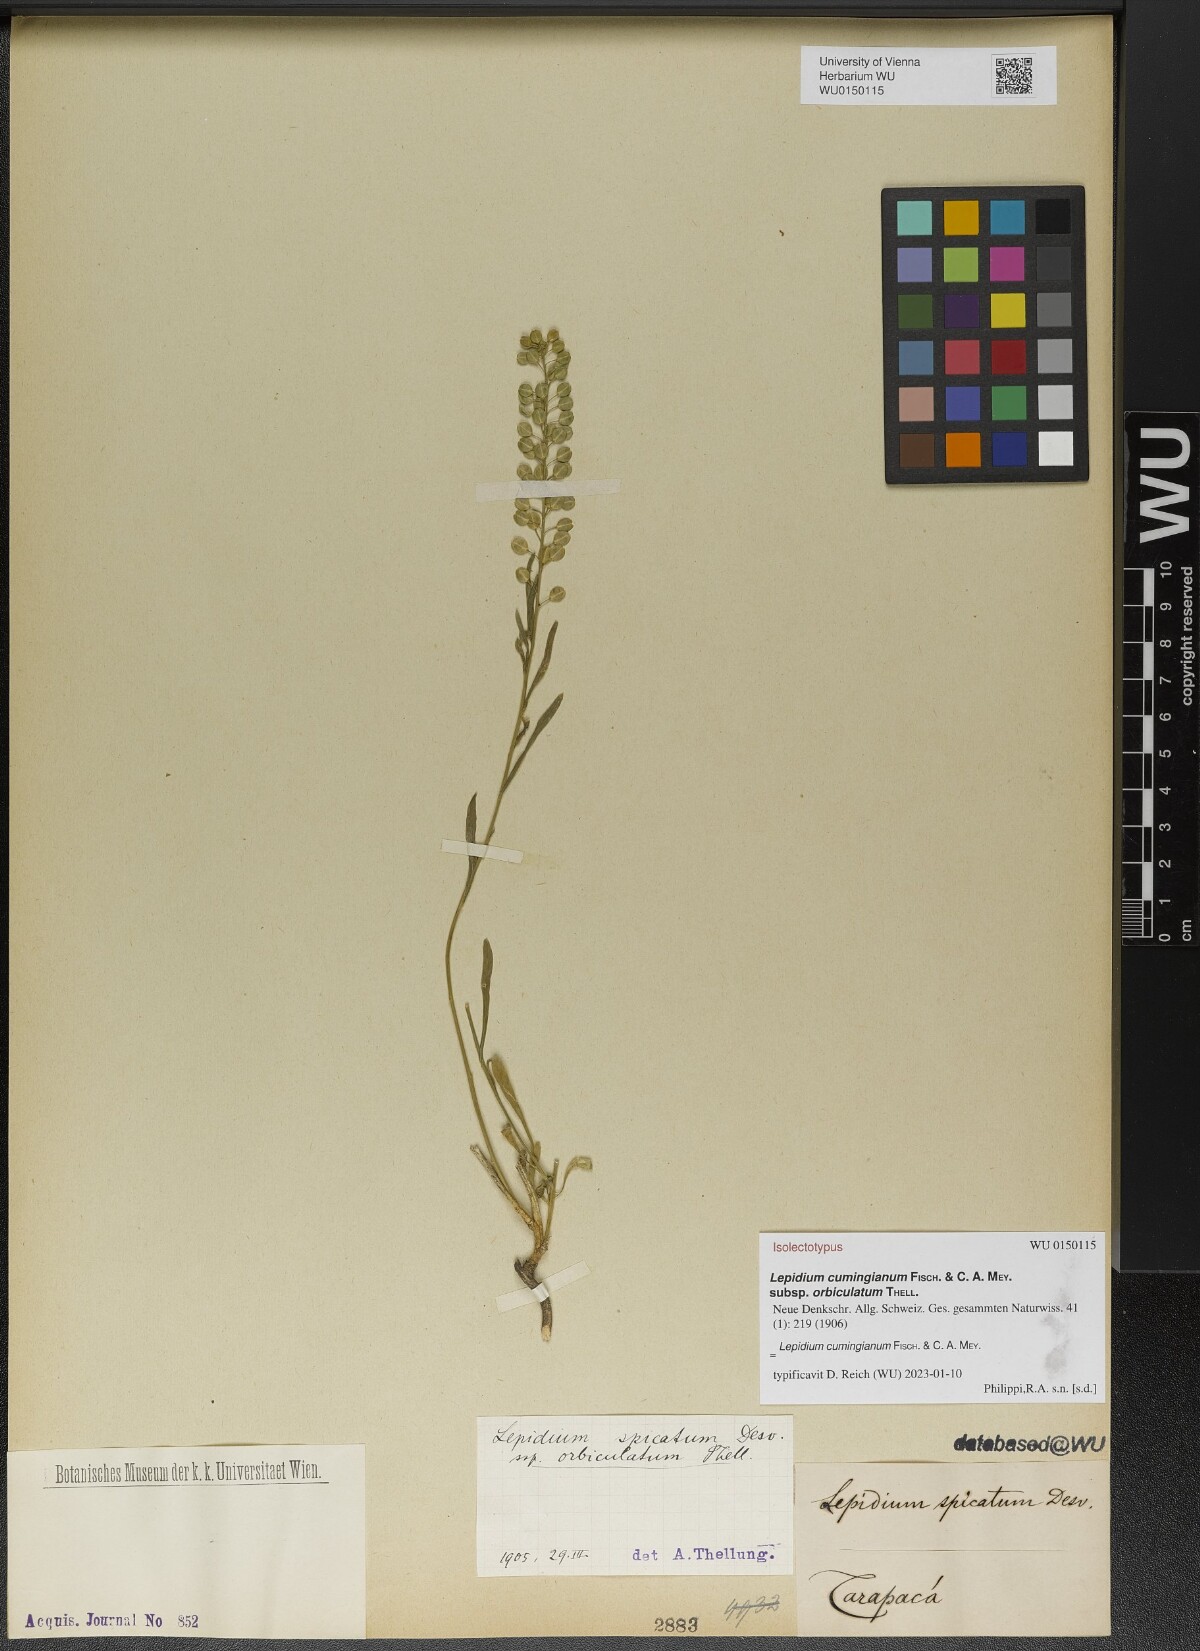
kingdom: Plantae
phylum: Tracheophyta
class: Magnoliopsida
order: Brassicales
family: Brassicaceae
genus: Lepidium
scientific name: Lepidium cumingianum
